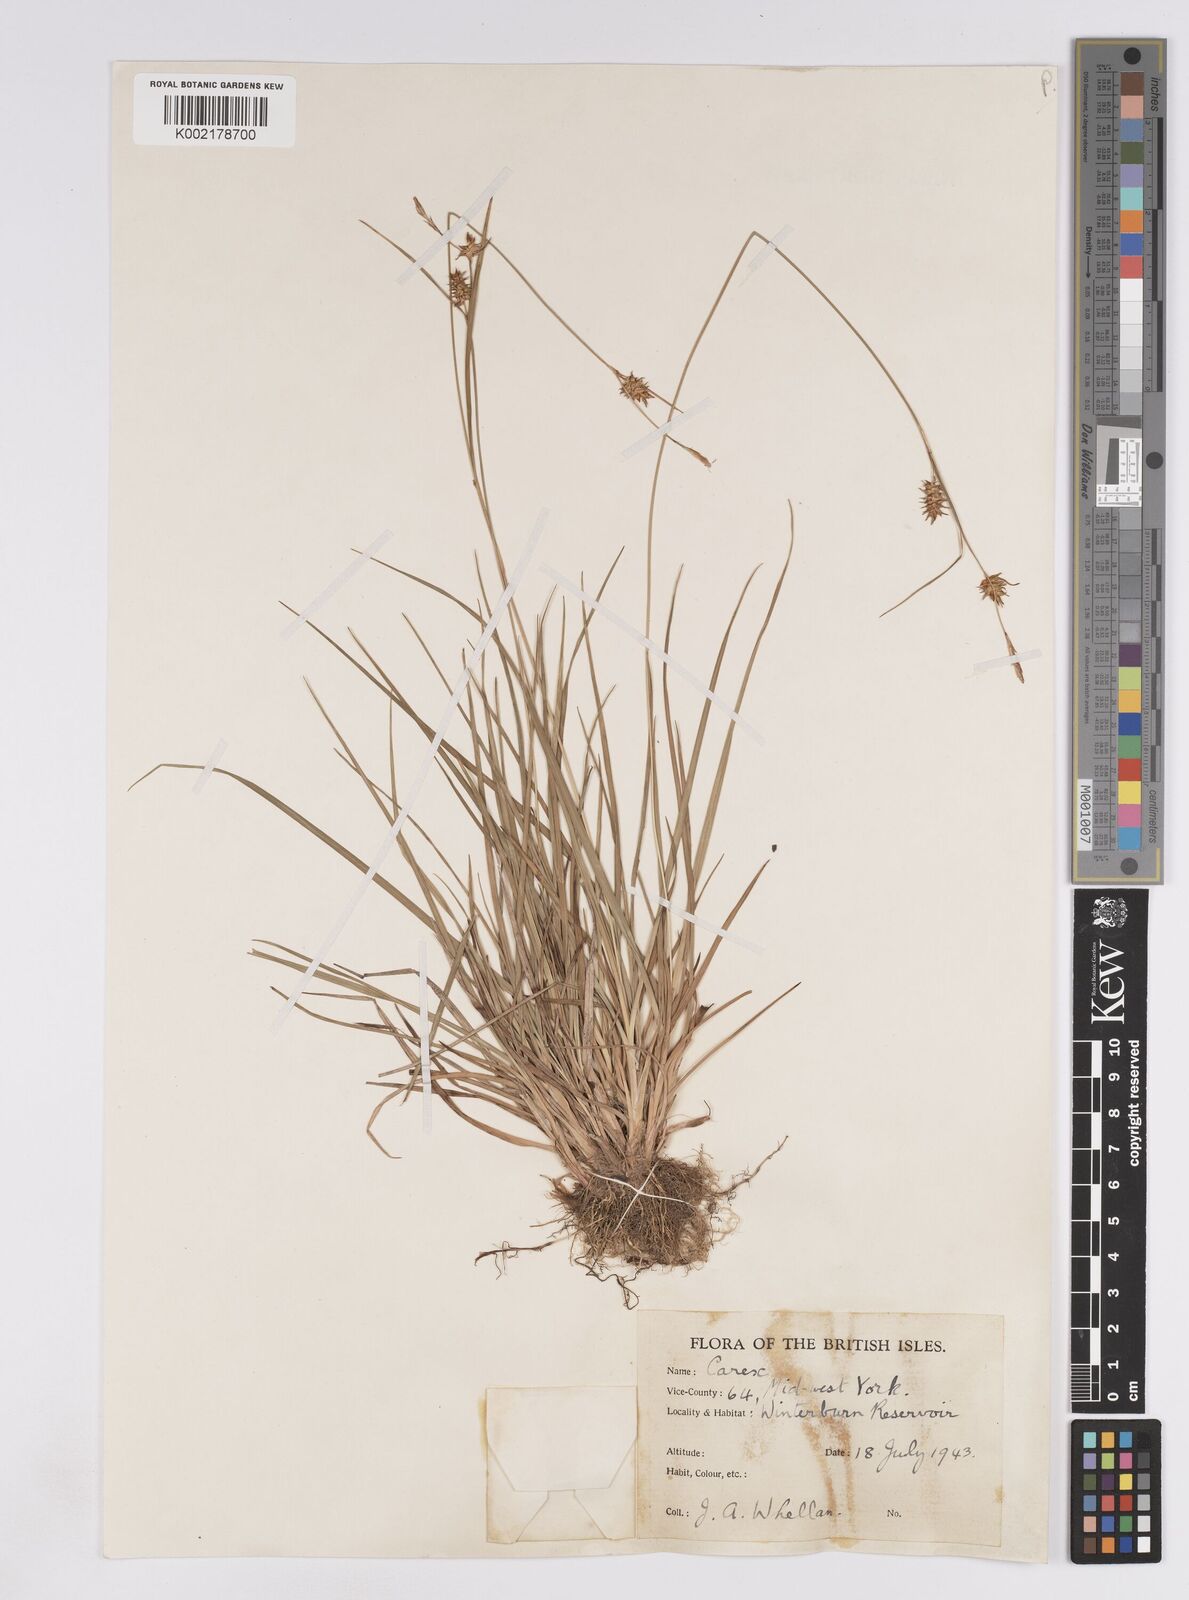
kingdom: Plantae
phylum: Tracheophyta
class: Liliopsida
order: Poales
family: Cyperaceae
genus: Carex
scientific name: Carex lepidocarpa
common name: Long-stalked yellow-sedge
